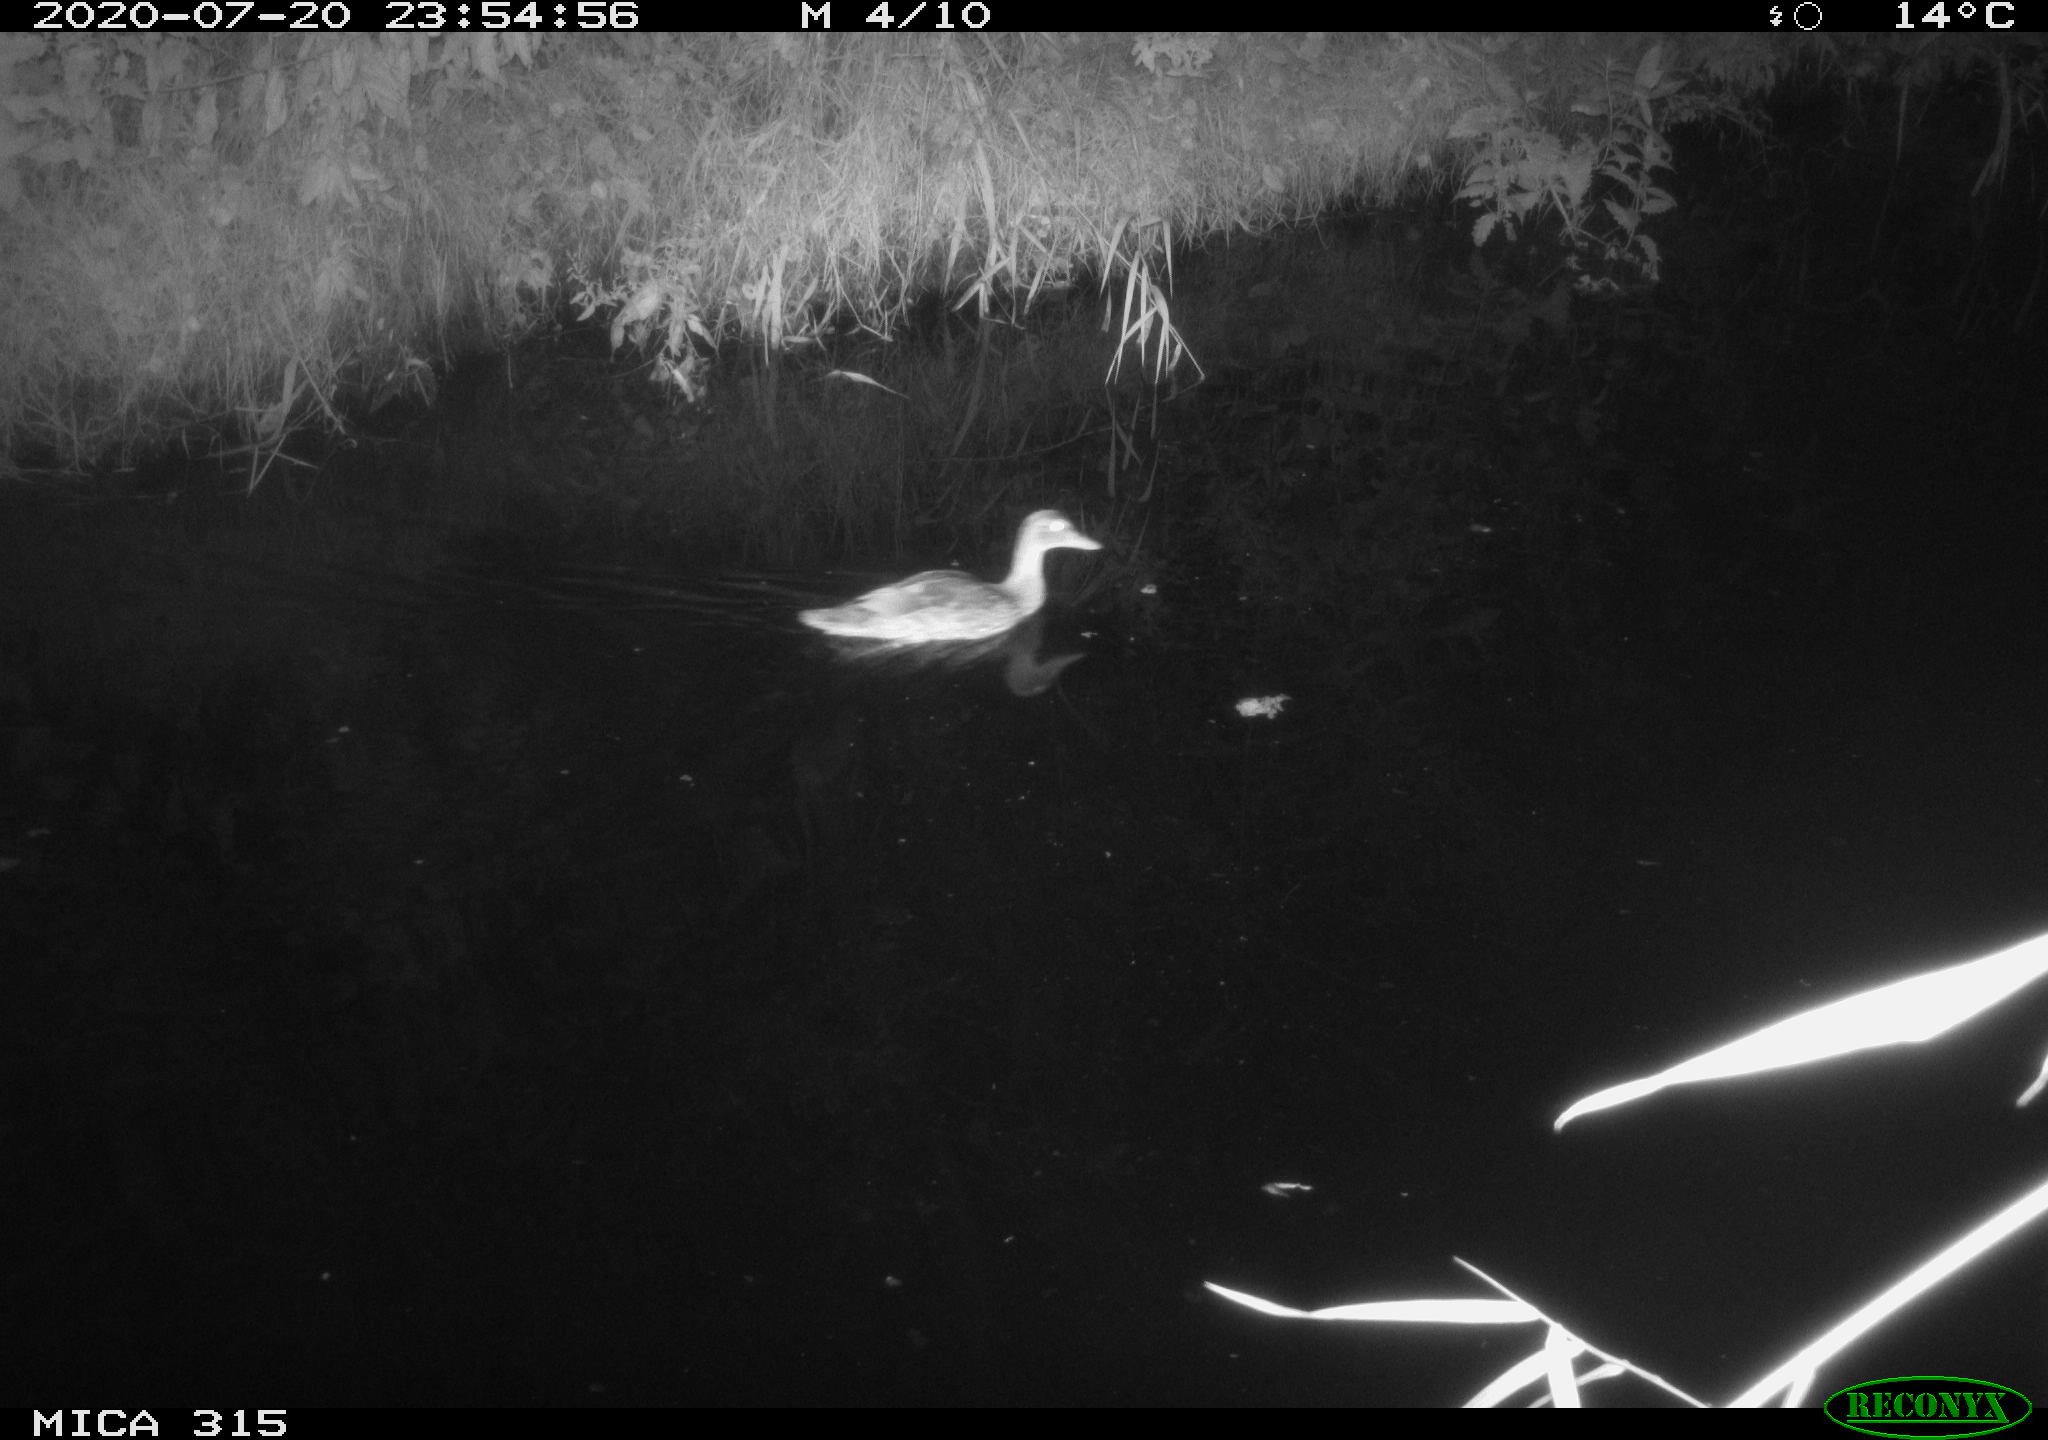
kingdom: Animalia
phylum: Chordata
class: Aves
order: Anseriformes
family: Anatidae
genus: Anas
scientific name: Anas platyrhynchos
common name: Mallard
